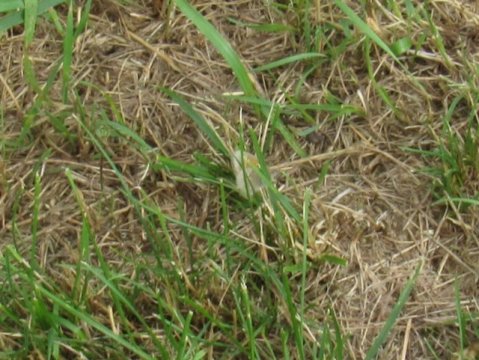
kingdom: Animalia
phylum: Arthropoda
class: Insecta
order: Lepidoptera
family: Nymphalidae
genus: Coenonympha
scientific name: Coenonympha tullia
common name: Large Heath
